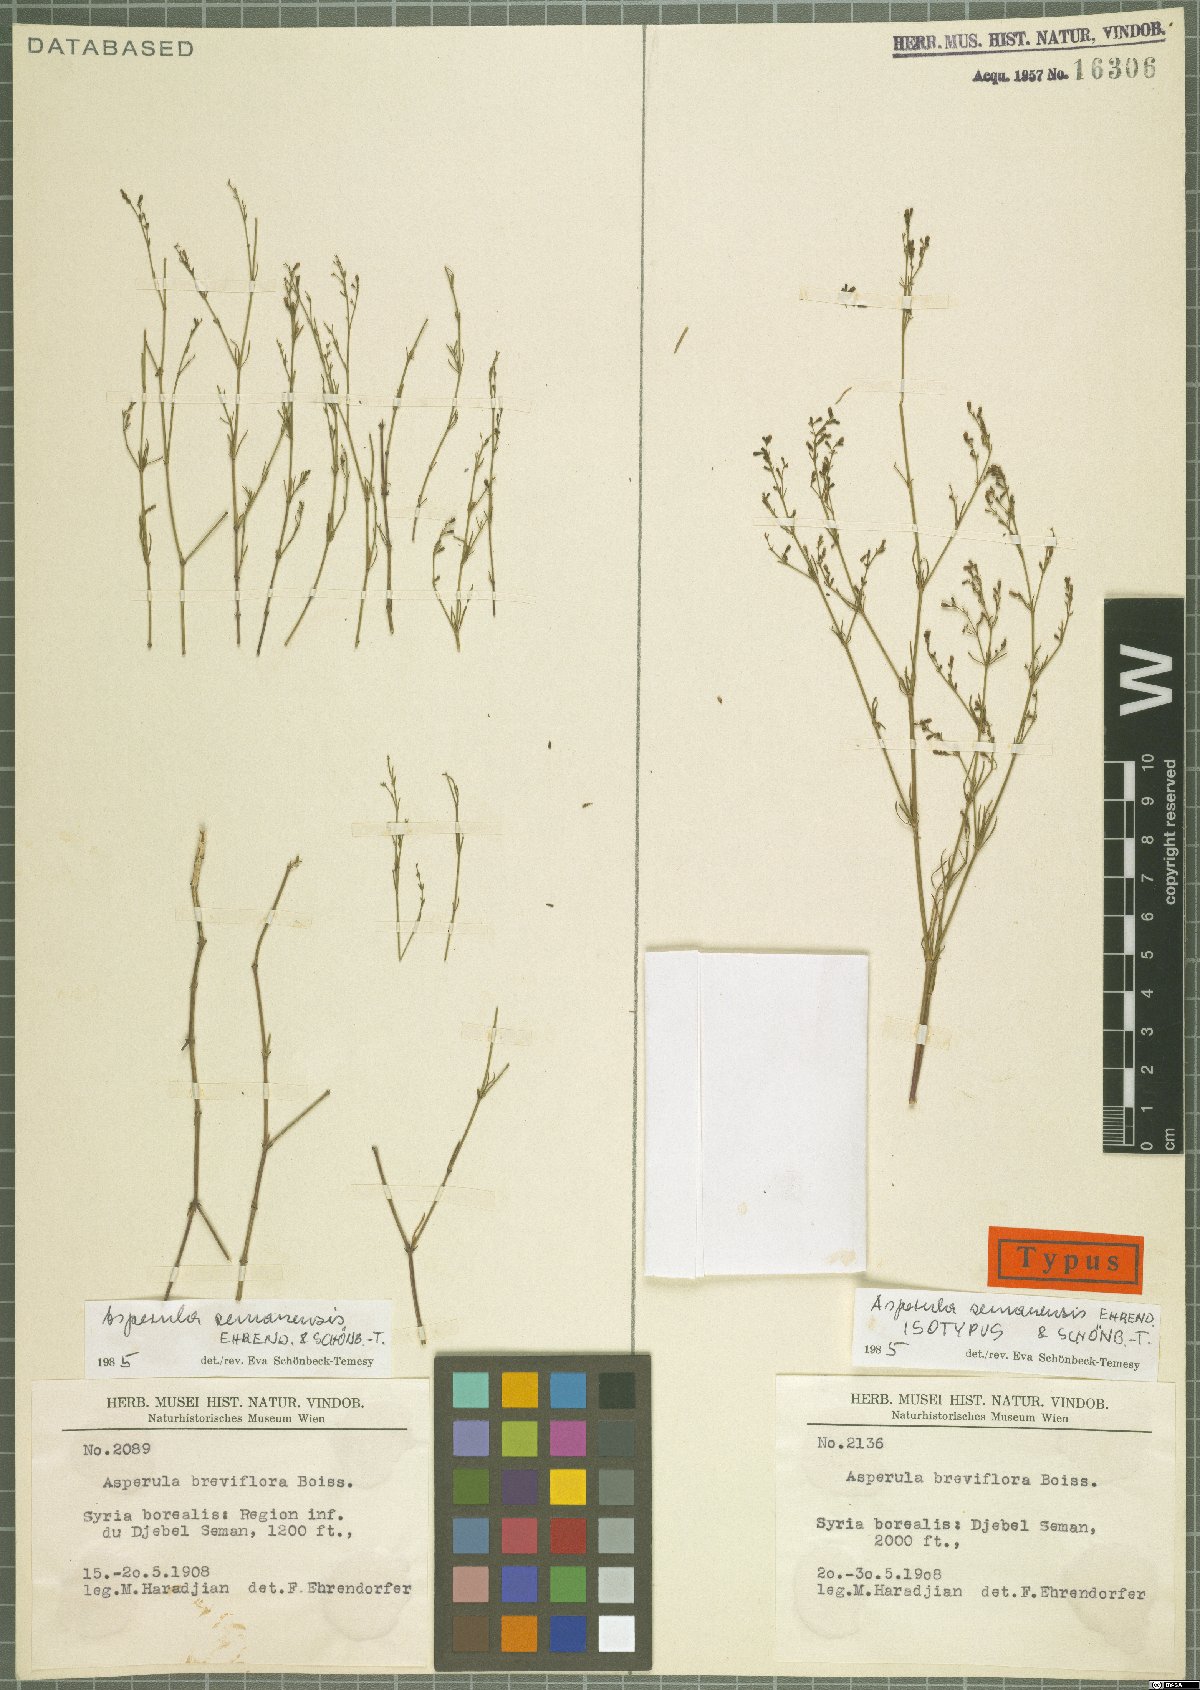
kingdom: Plantae
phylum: Tracheophyta
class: Magnoliopsida
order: Gentianales
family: Rubiaceae
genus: Thliphthisa
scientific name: Thliphthisa semanensis
